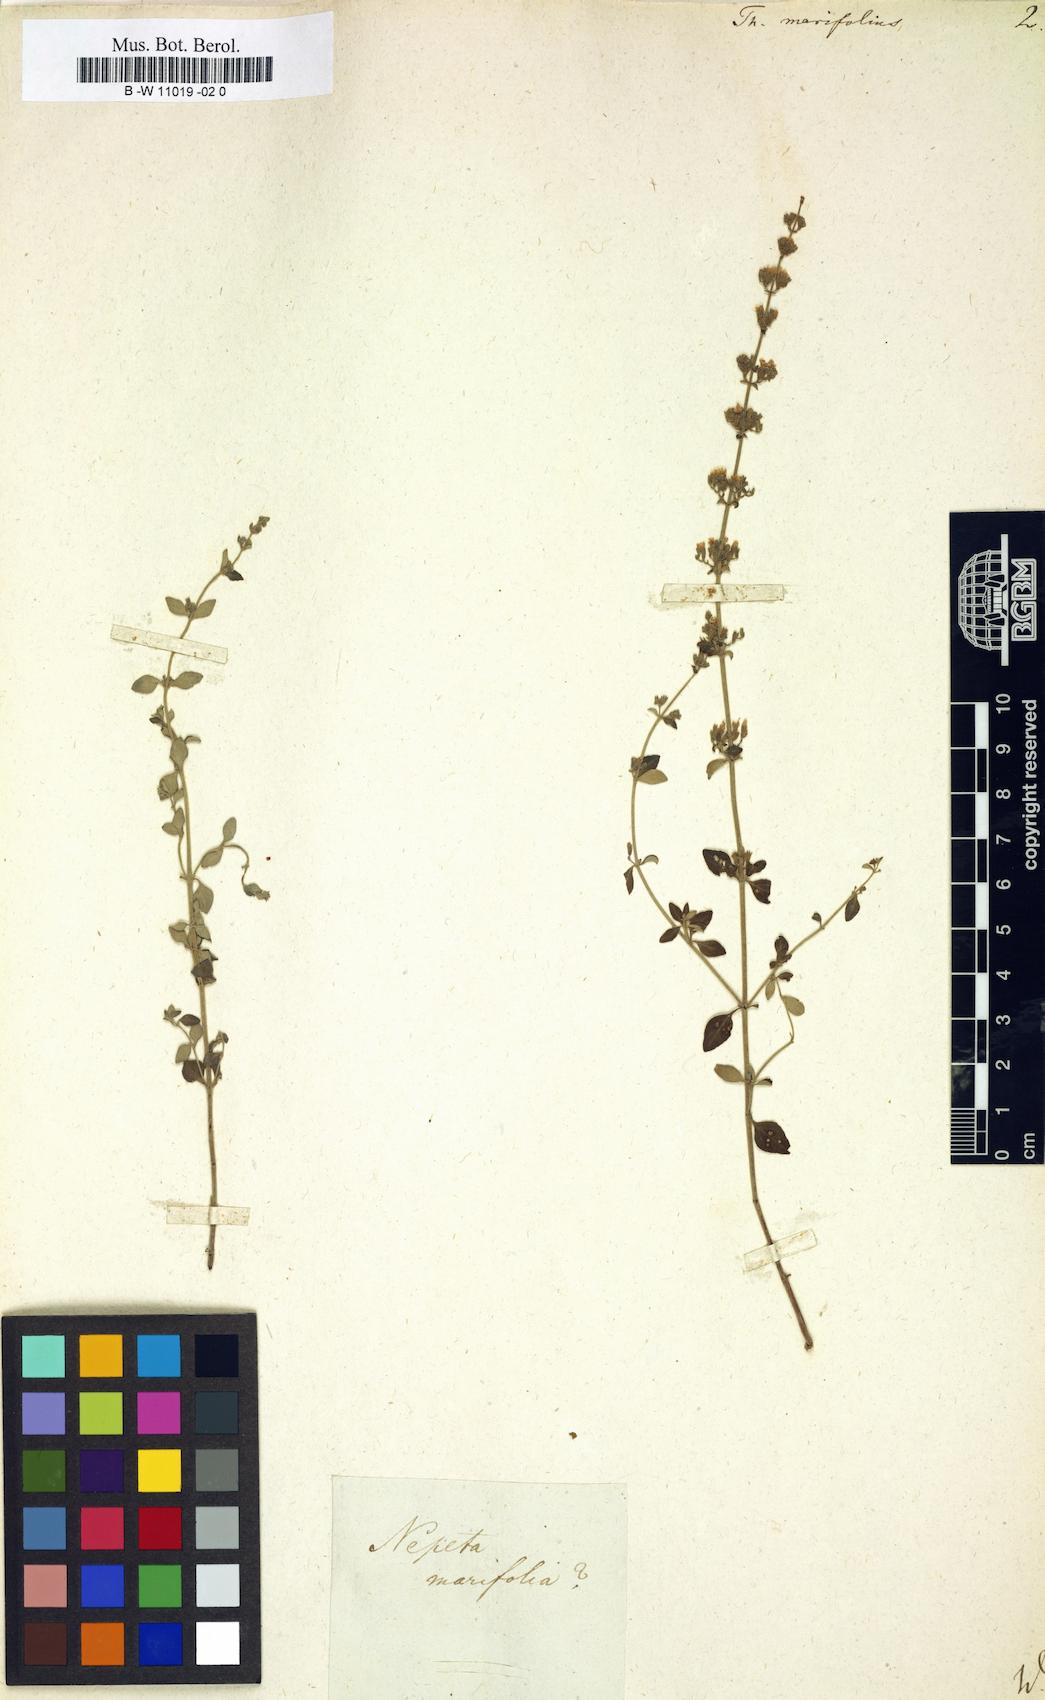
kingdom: Plantae
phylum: Tracheophyta
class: Magnoliopsida
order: Lamiales
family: Lamiaceae
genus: Clinopodium
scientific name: Clinopodium serpyllifolium
